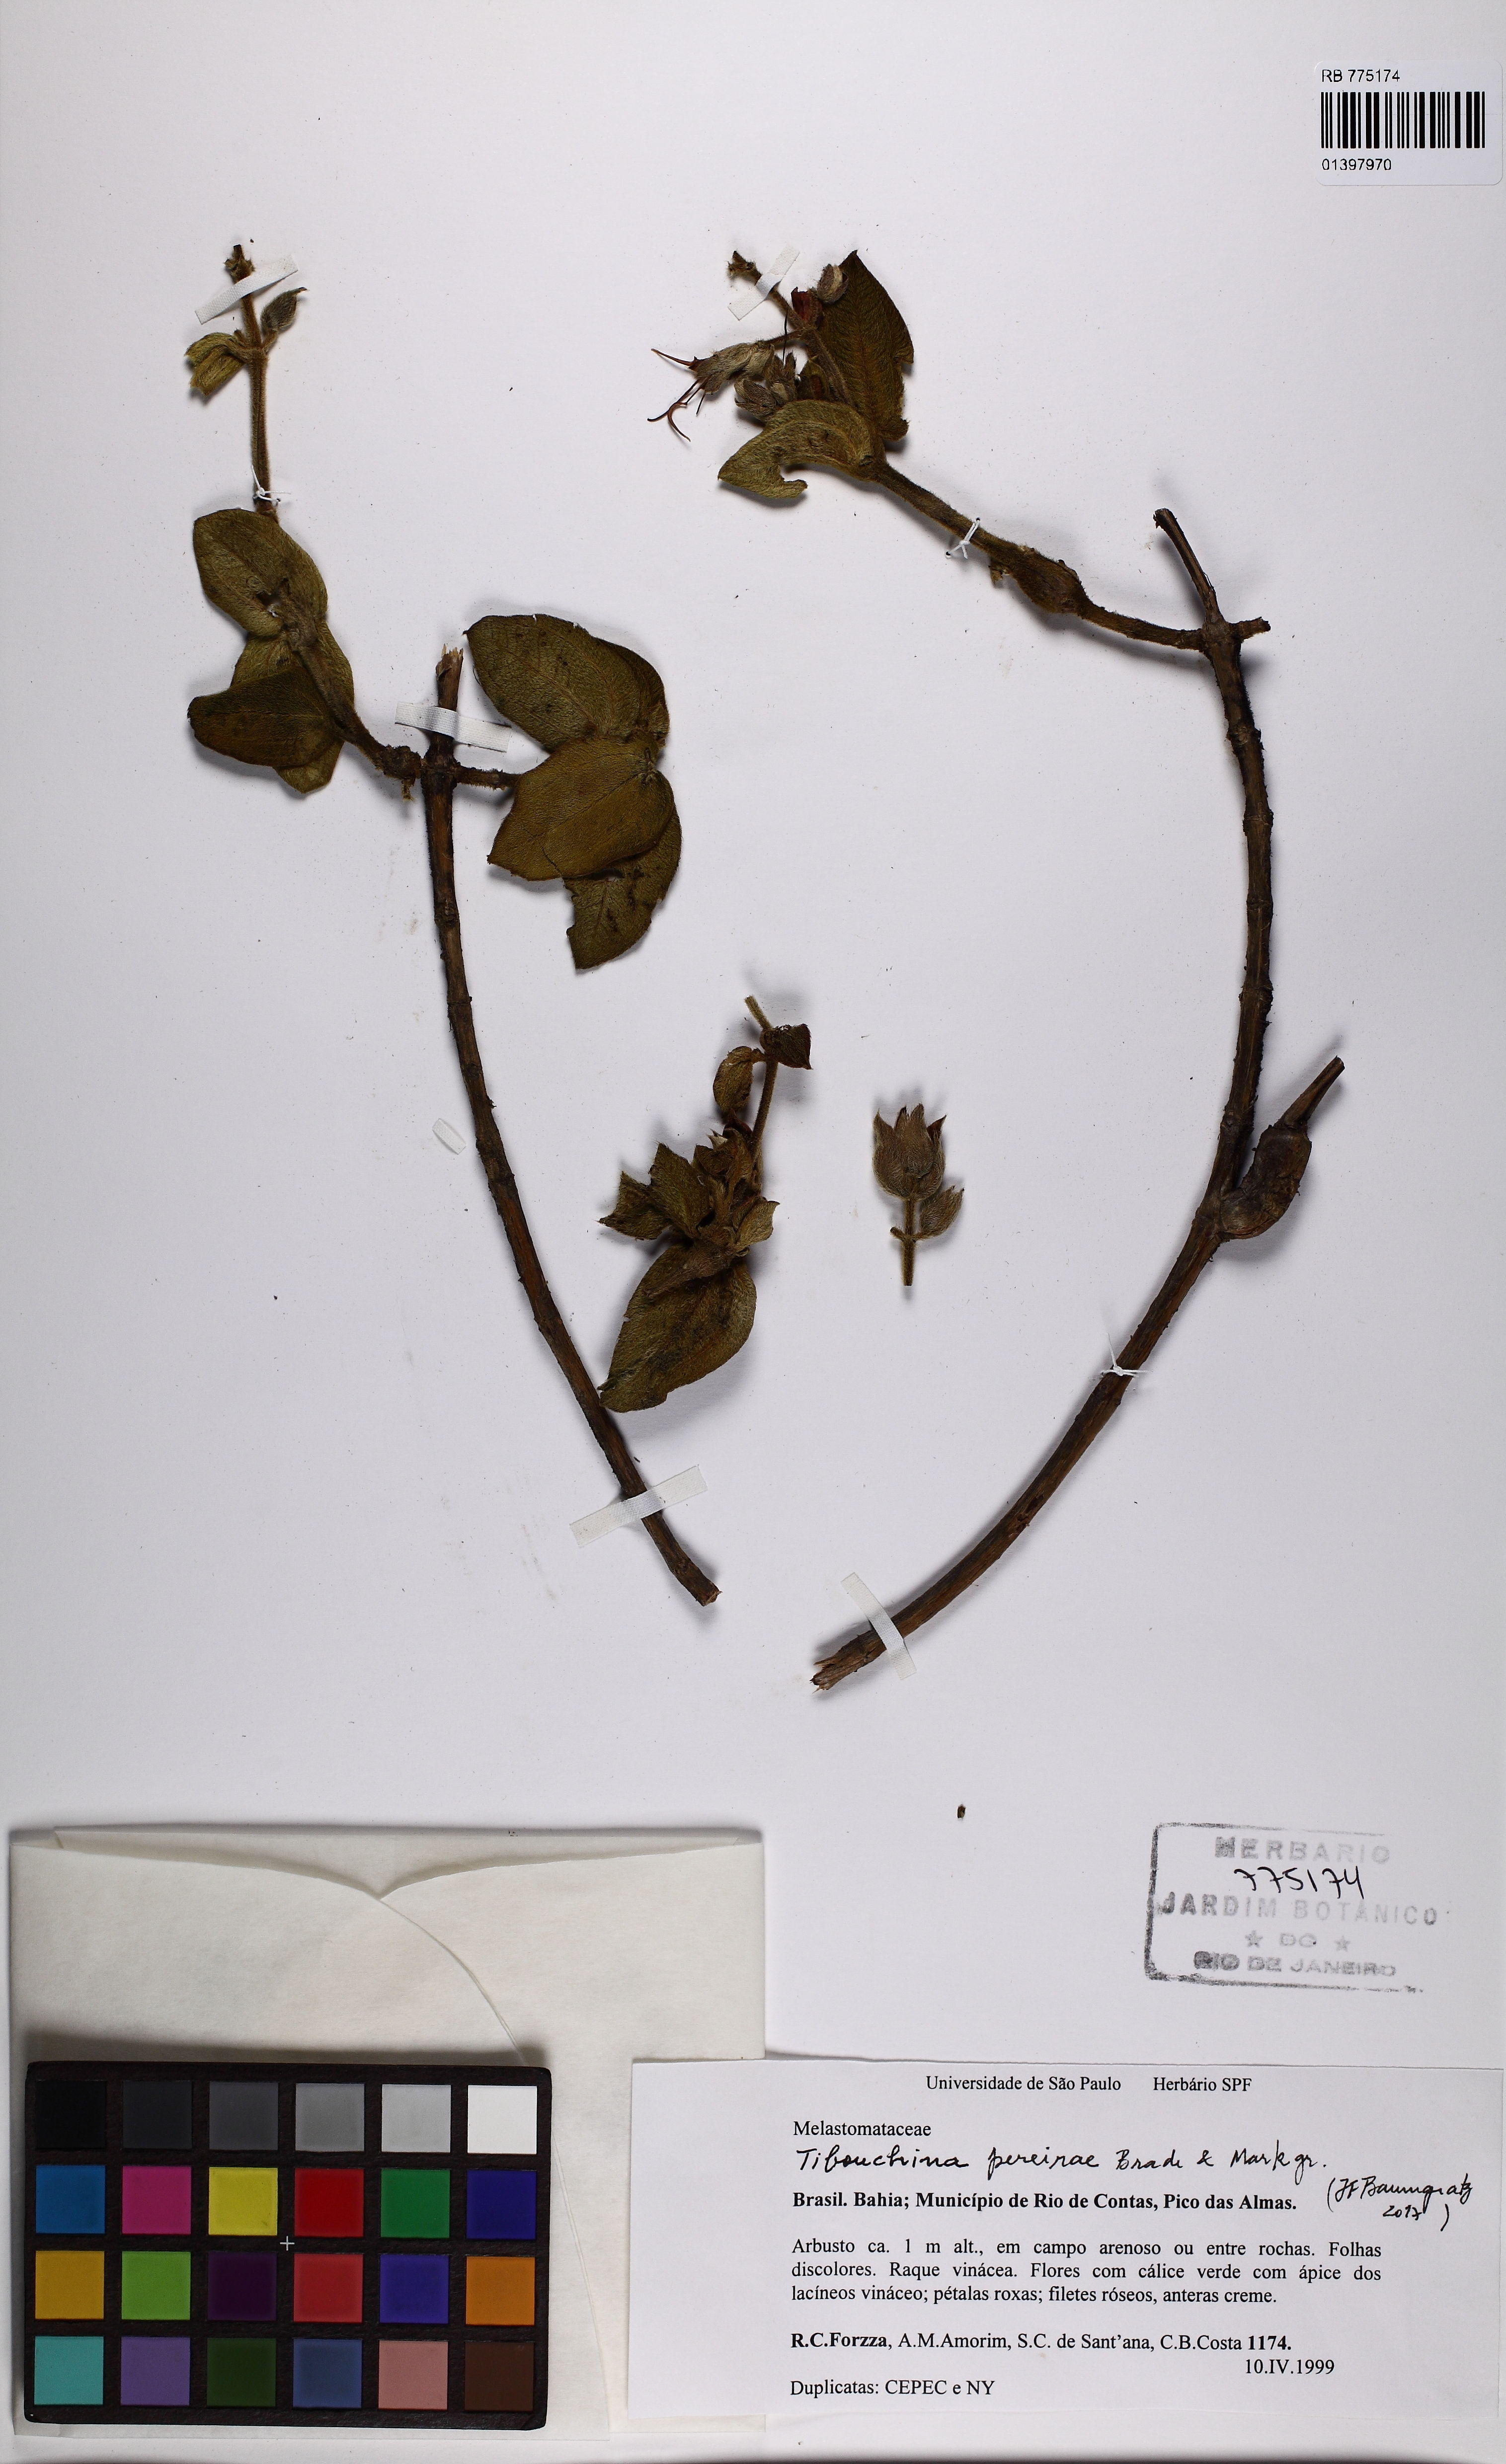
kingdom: Plantae
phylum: Tracheophyta
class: Magnoliopsida
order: Myrtales
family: Melastomataceae
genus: Pleroma
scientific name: Pleroma pereirae
